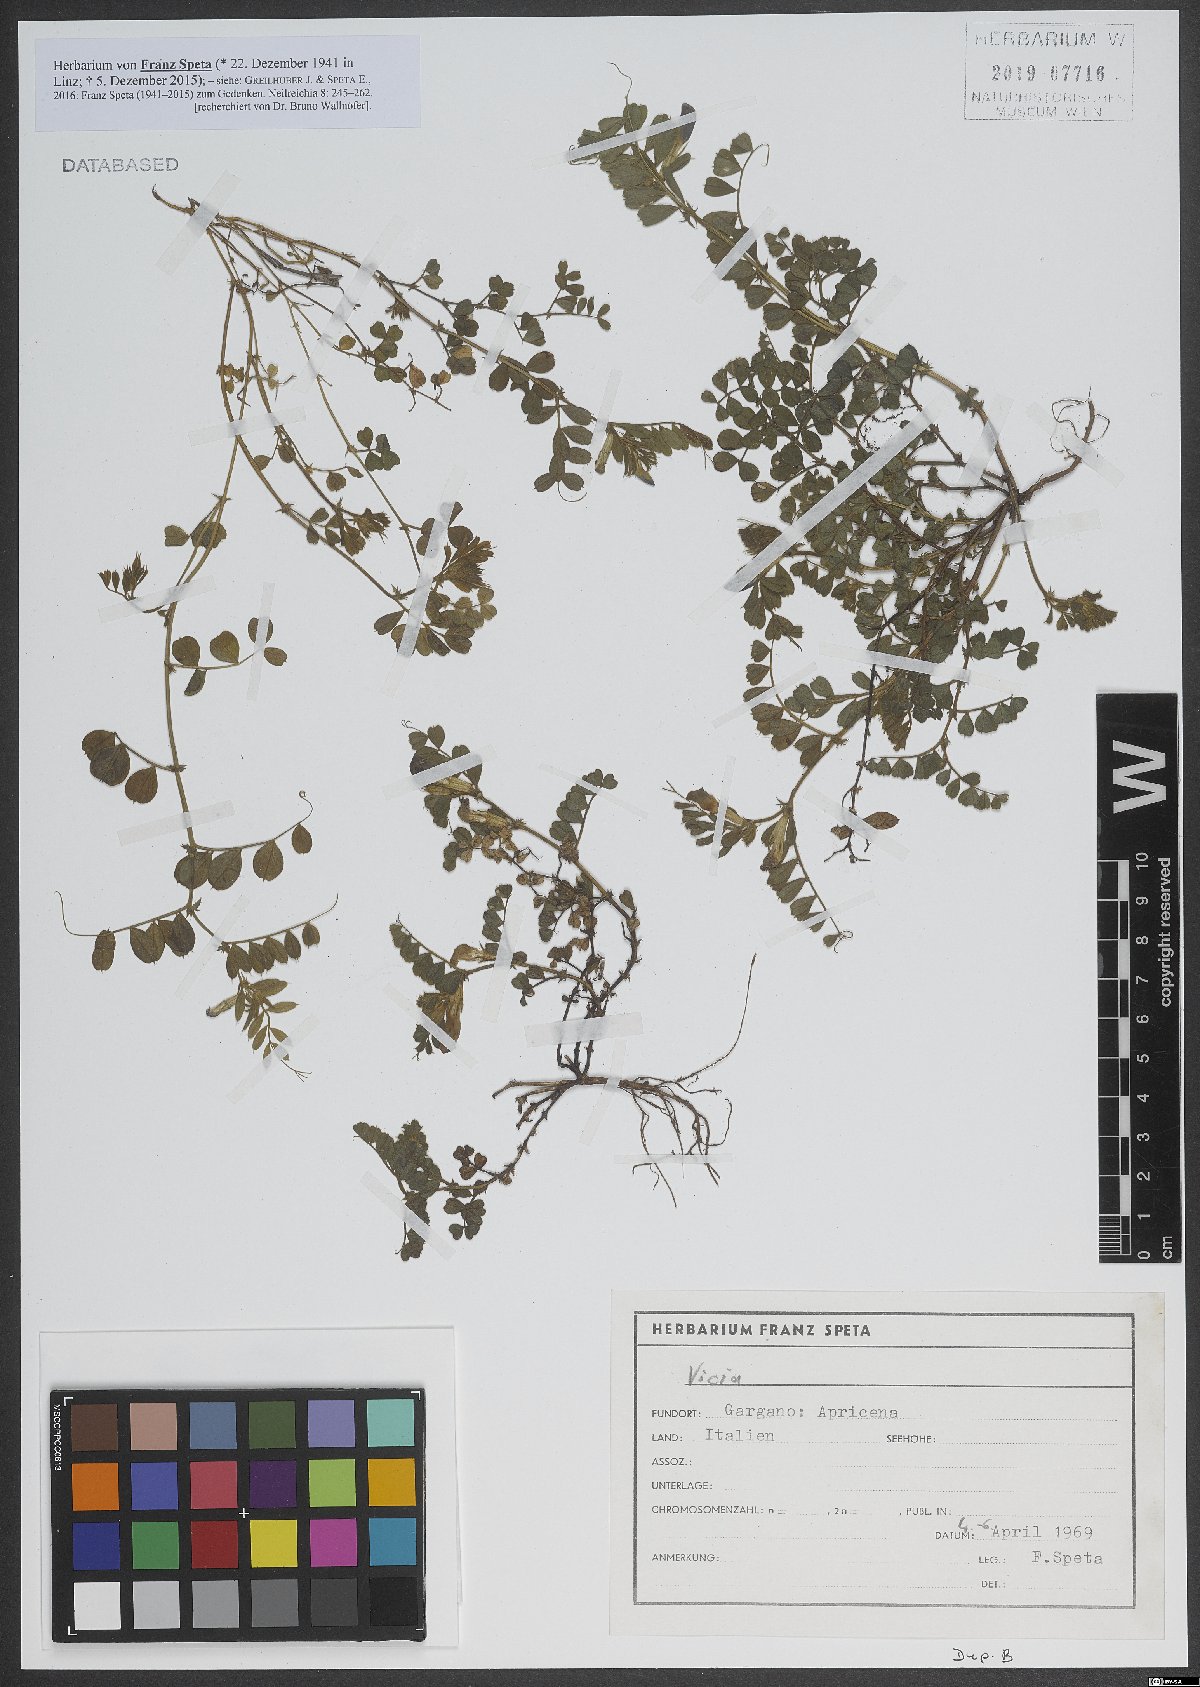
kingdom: Plantae
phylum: Tracheophyta
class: Magnoliopsida
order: Fabales
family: Fabaceae
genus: Vicia
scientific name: Vicia
